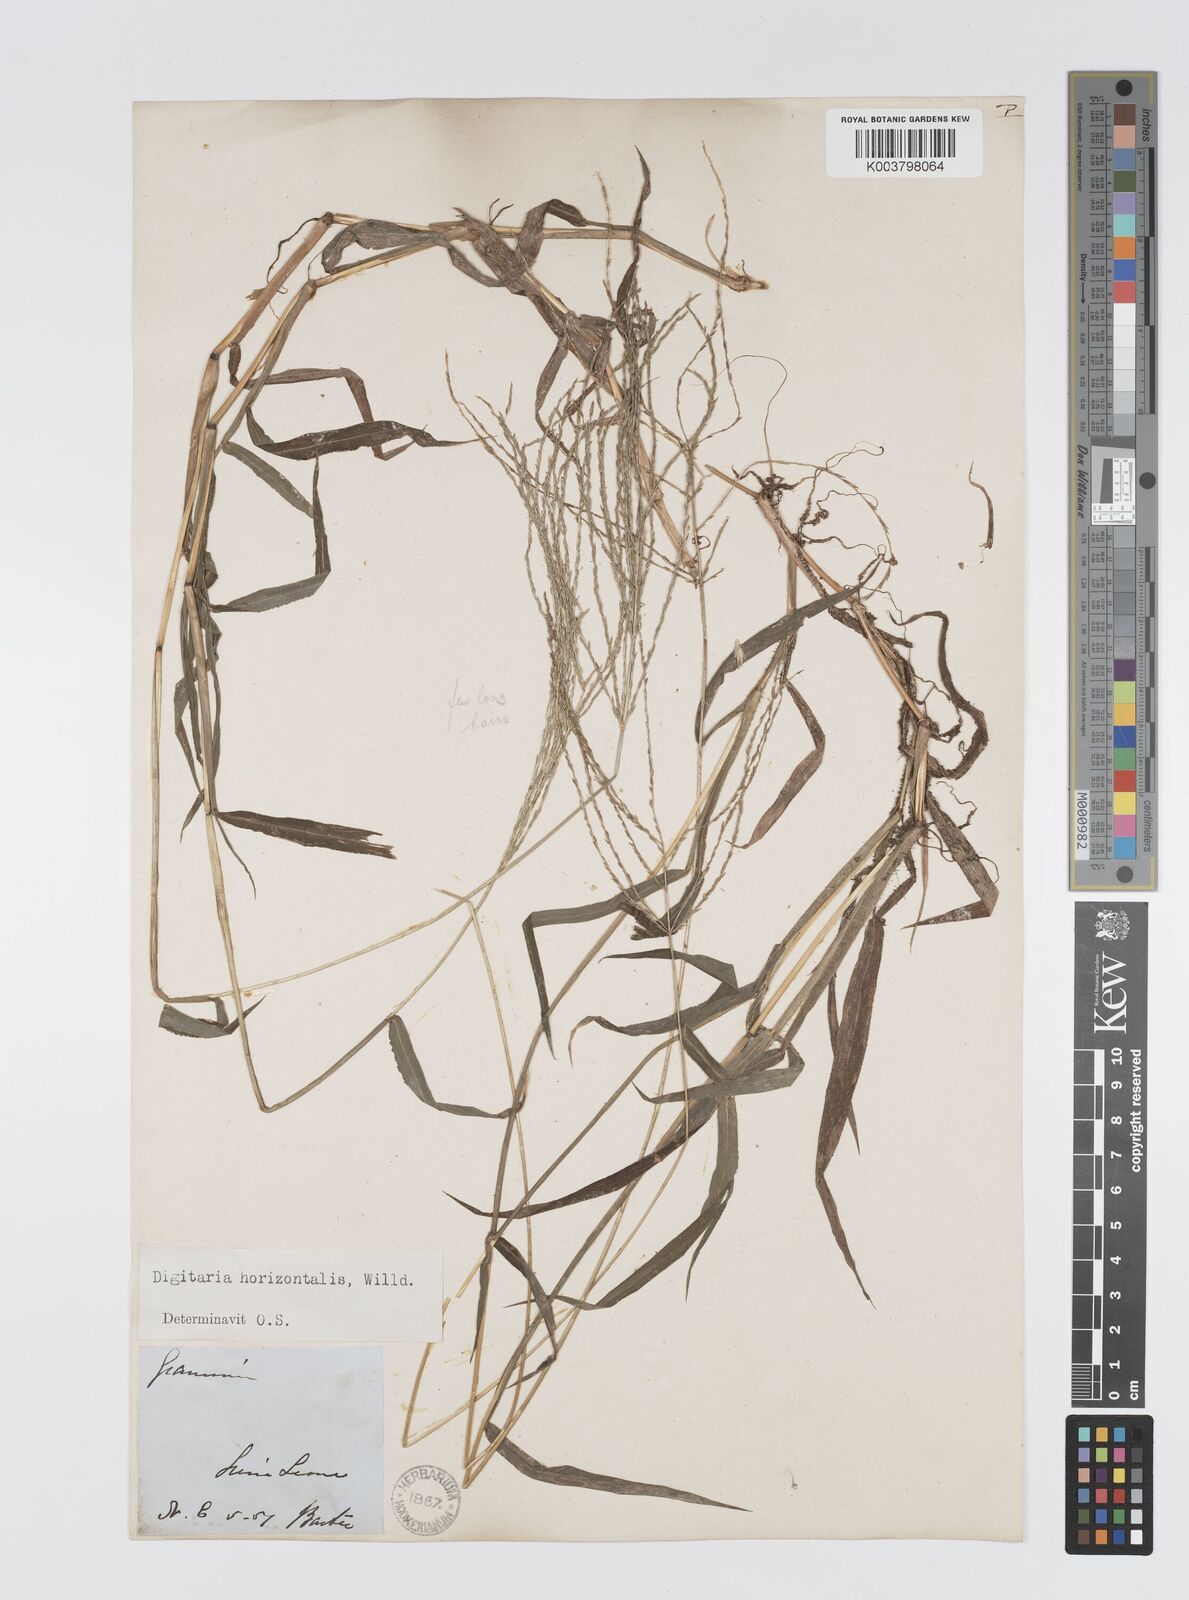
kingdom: Plantae
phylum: Tracheophyta
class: Liliopsida
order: Poales
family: Poaceae
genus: Digitaria
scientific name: Digitaria horizontalis
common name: Jamaican crabgrass
